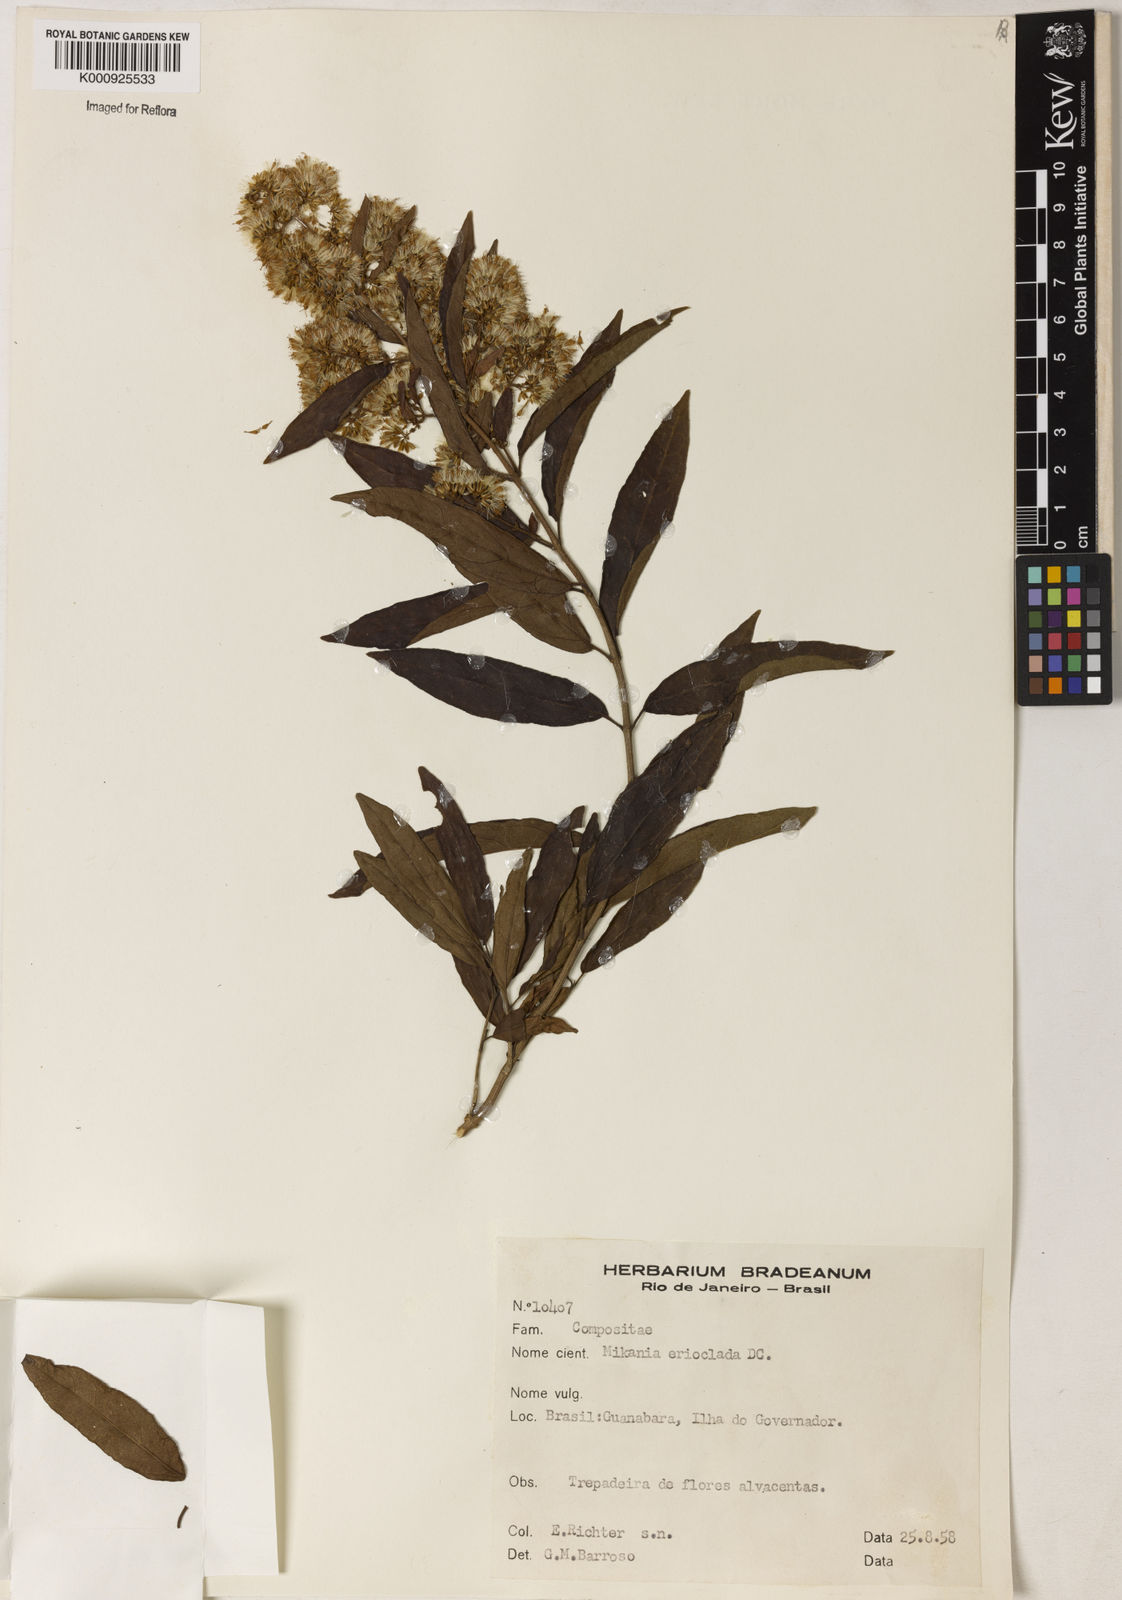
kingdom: Plantae
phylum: Tracheophyta
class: Magnoliopsida
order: Asterales
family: Asteraceae
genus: Mikania
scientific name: Mikania erioclada
